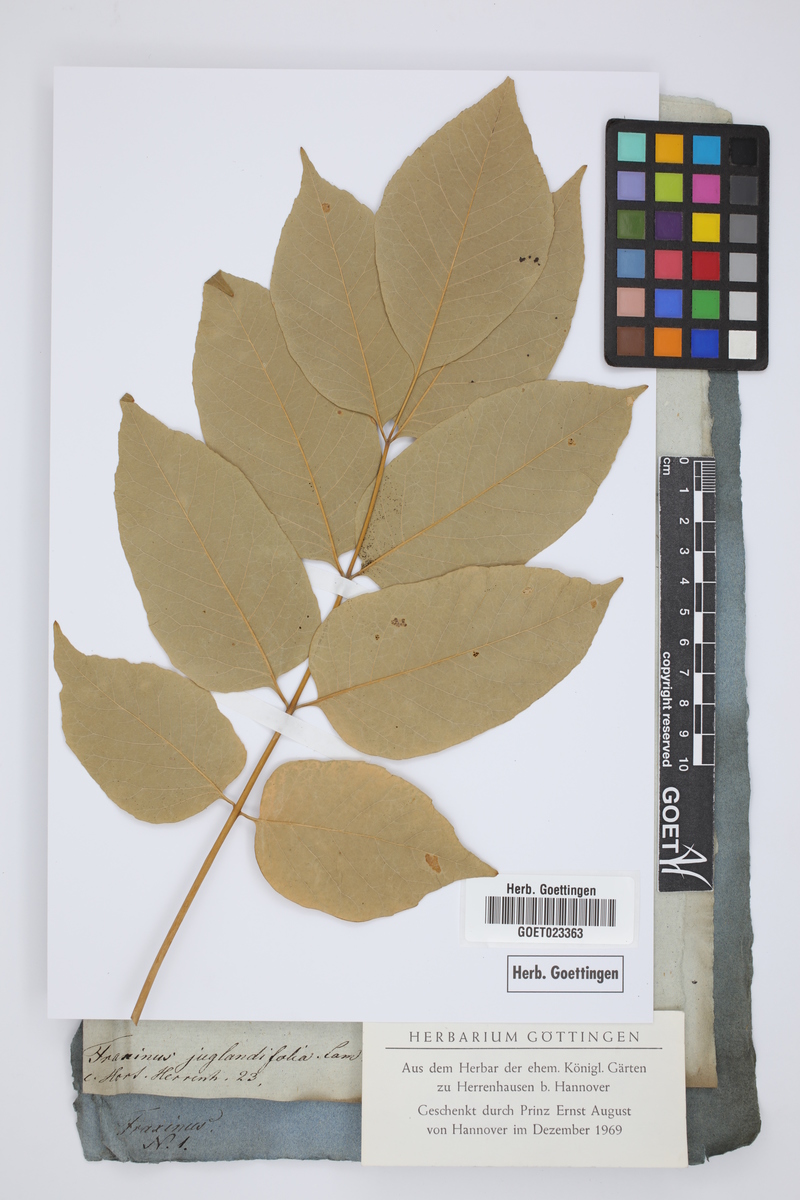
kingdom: Plantae
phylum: Tracheophyta
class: Magnoliopsida
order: Lamiales
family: Oleaceae
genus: Fraxinus
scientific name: Fraxinus pennsylvanica
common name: Green ash
